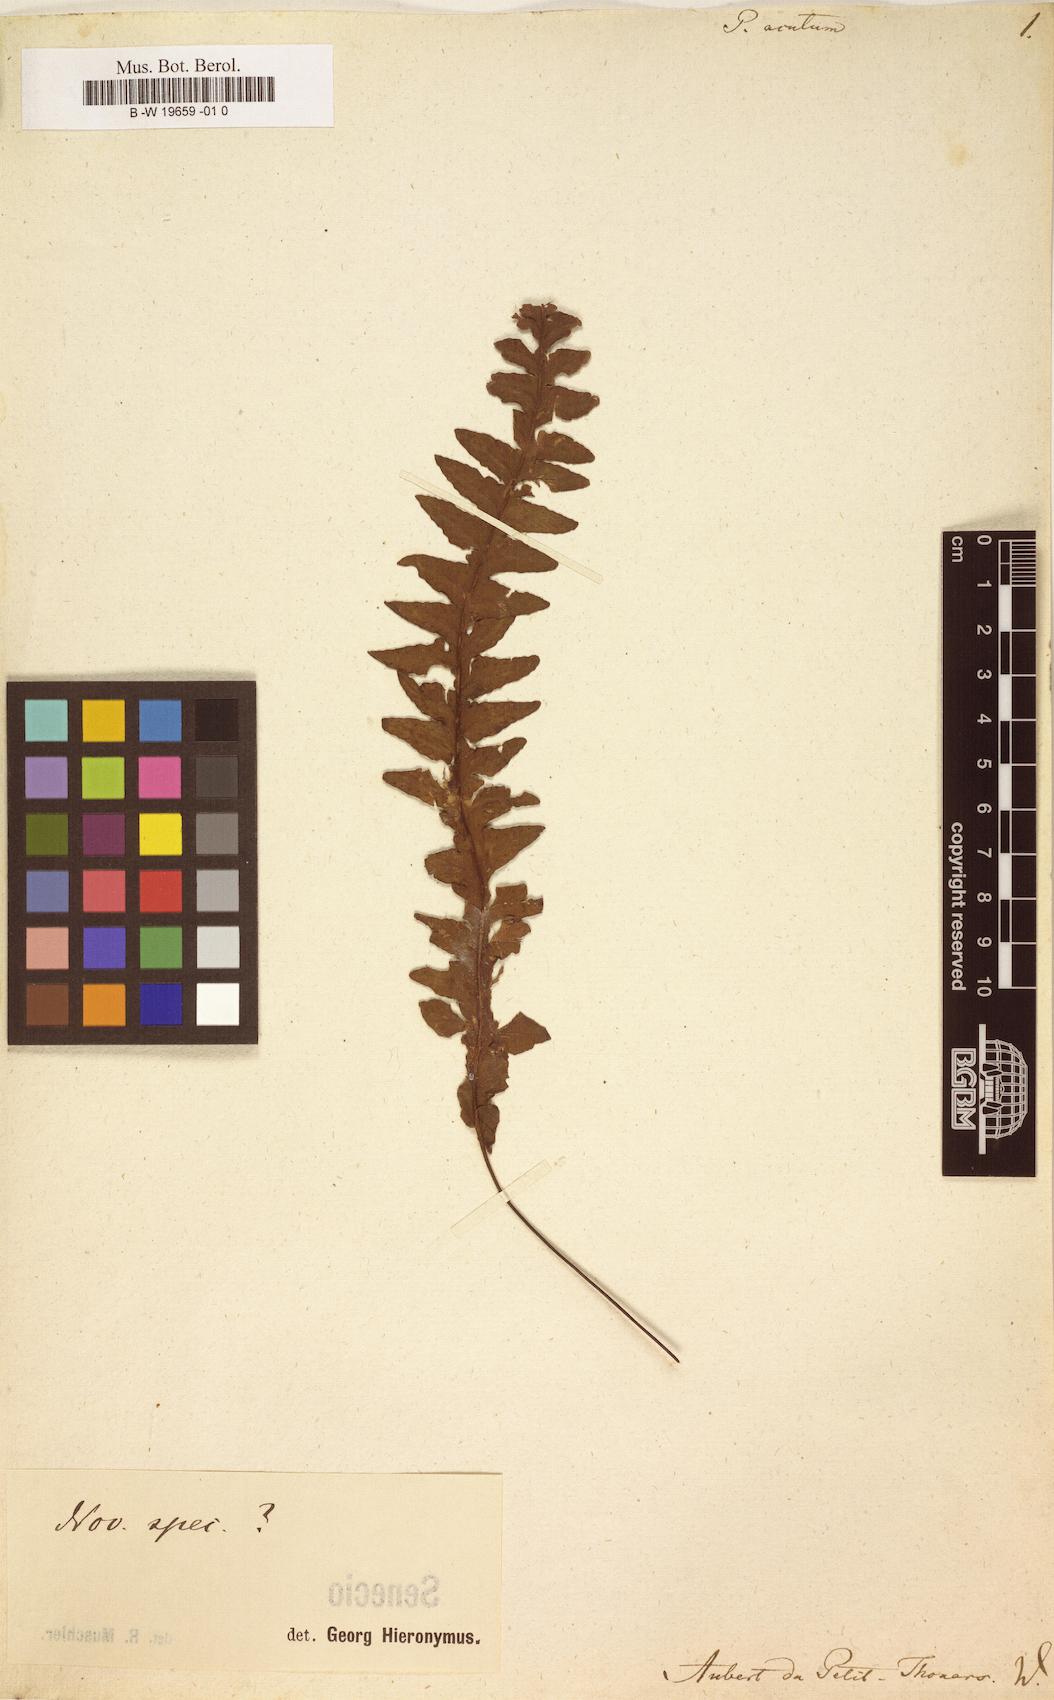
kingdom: Plantae
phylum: Tracheophyta
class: Polypodiopsida
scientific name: Polypodiopsida
